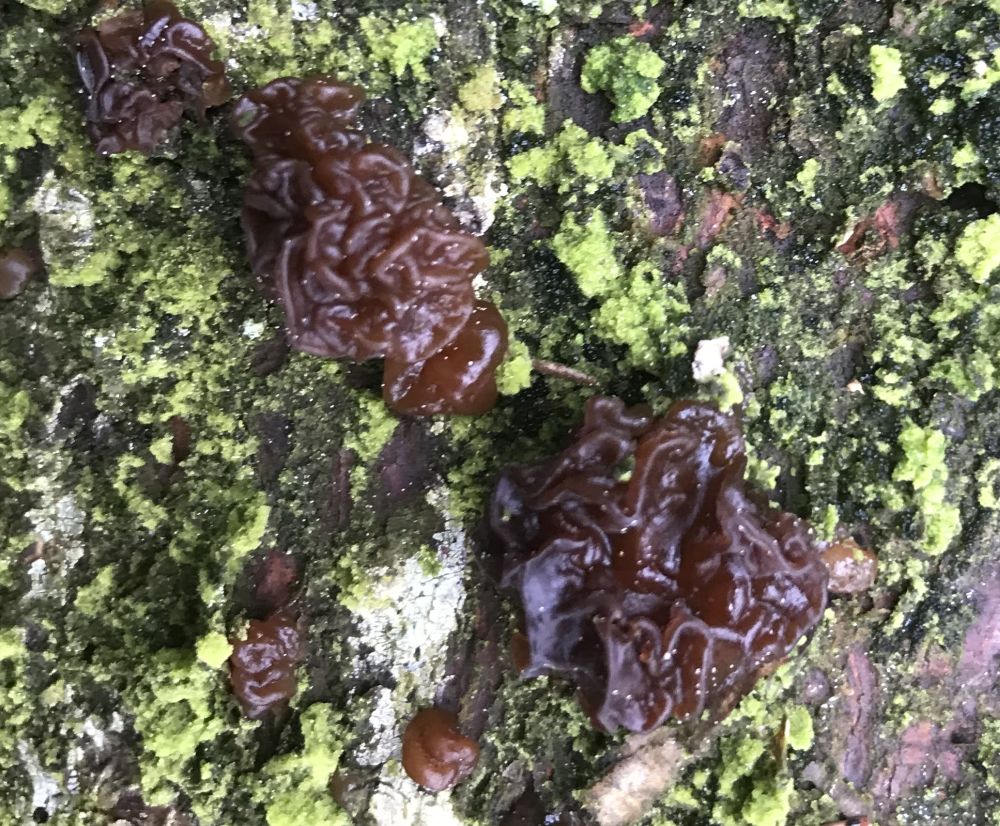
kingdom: Fungi
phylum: Basidiomycota
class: Agaricomycetes
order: Auriculariales
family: Auriculariaceae
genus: Exidia
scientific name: Exidia saccharina
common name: kandis-bævretop
